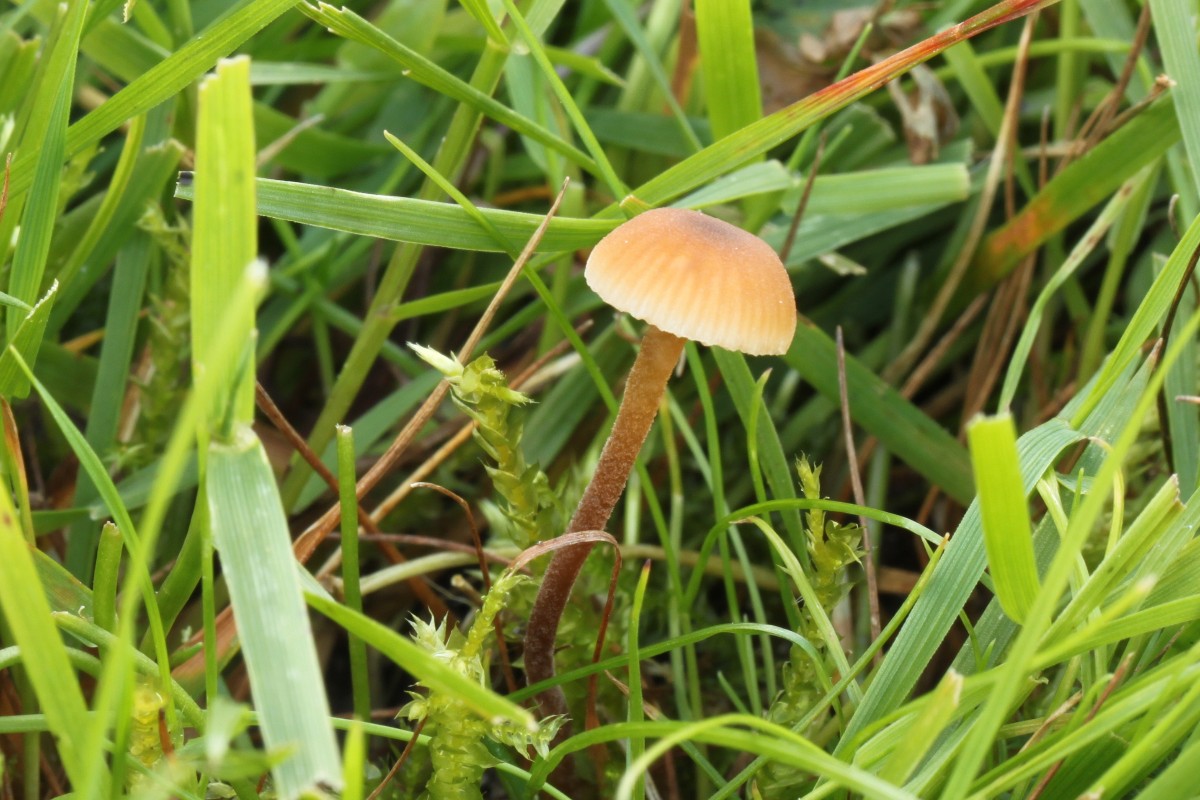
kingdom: Fungi
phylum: Basidiomycota
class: Agaricomycetes
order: Agaricales
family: Macrocystidiaceae
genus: Macrocystidia
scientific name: Macrocystidia cucumis
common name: Cucumber cap
